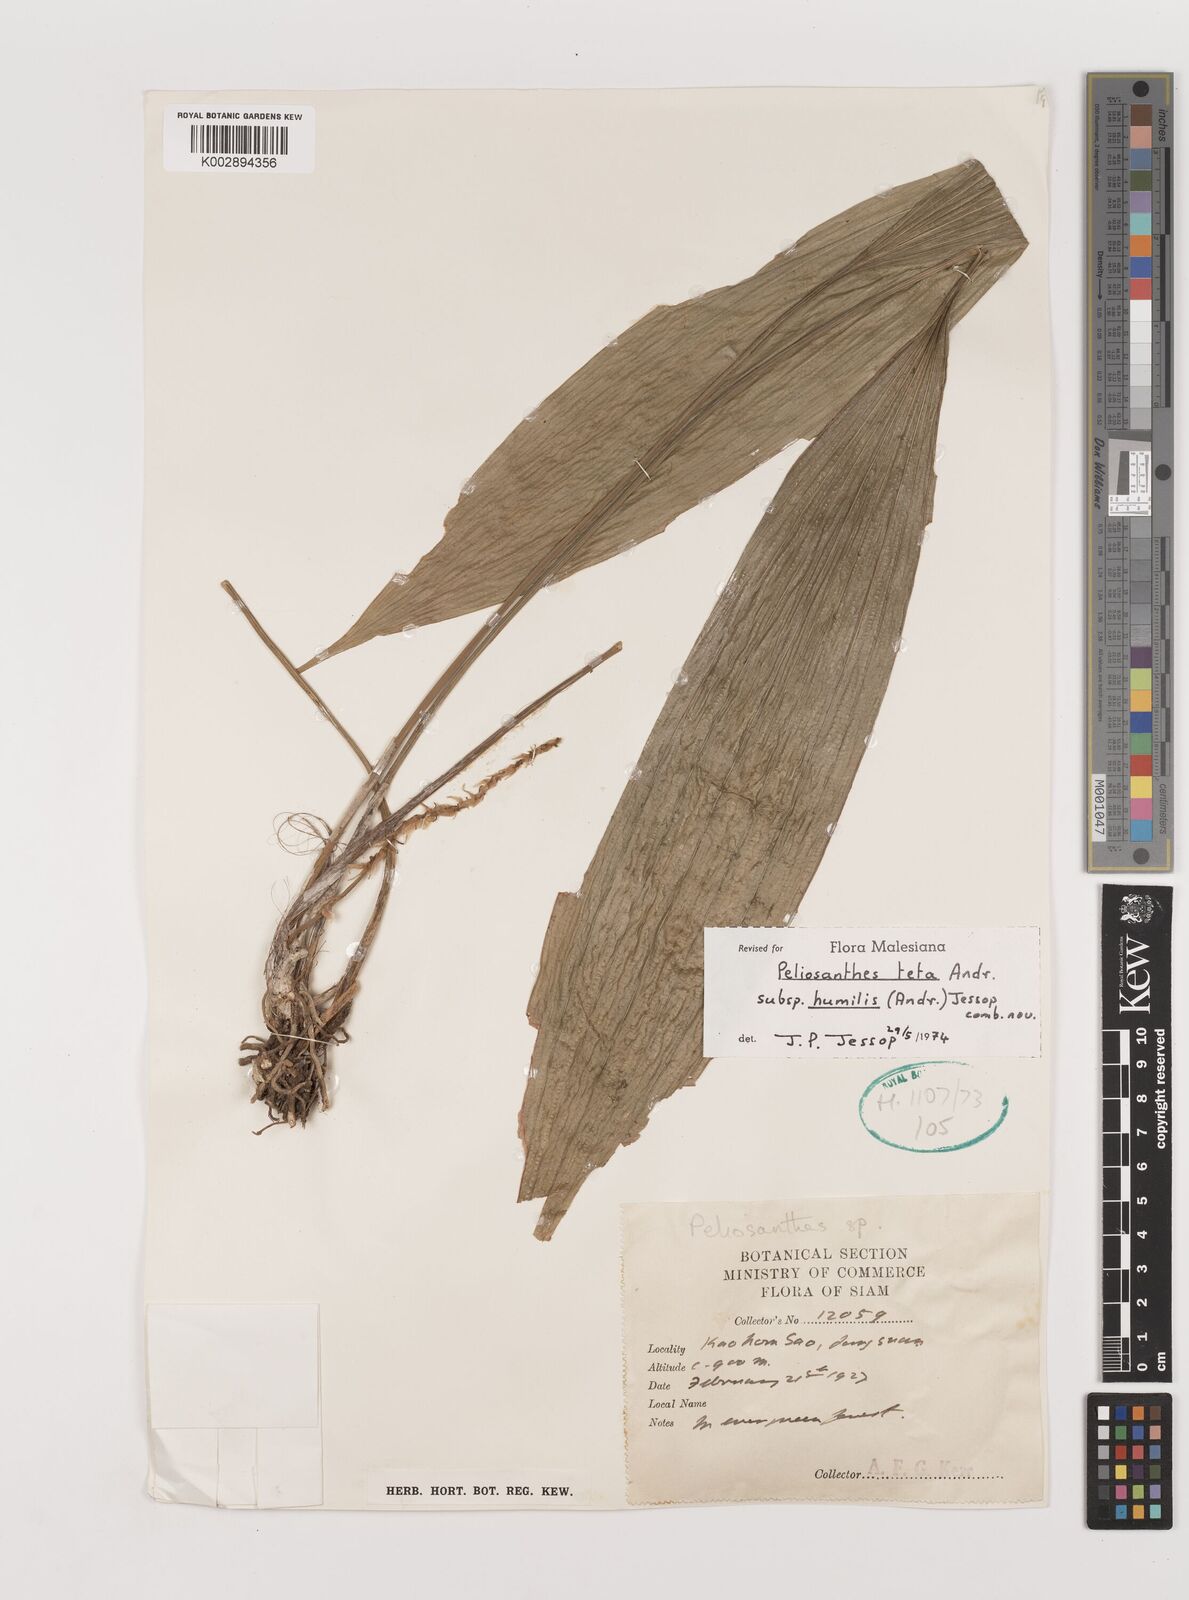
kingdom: Plantae
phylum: Tracheophyta
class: Liliopsida
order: Asparagales
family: Asparagaceae
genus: Peliosanthes
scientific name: Peliosanthes teta
